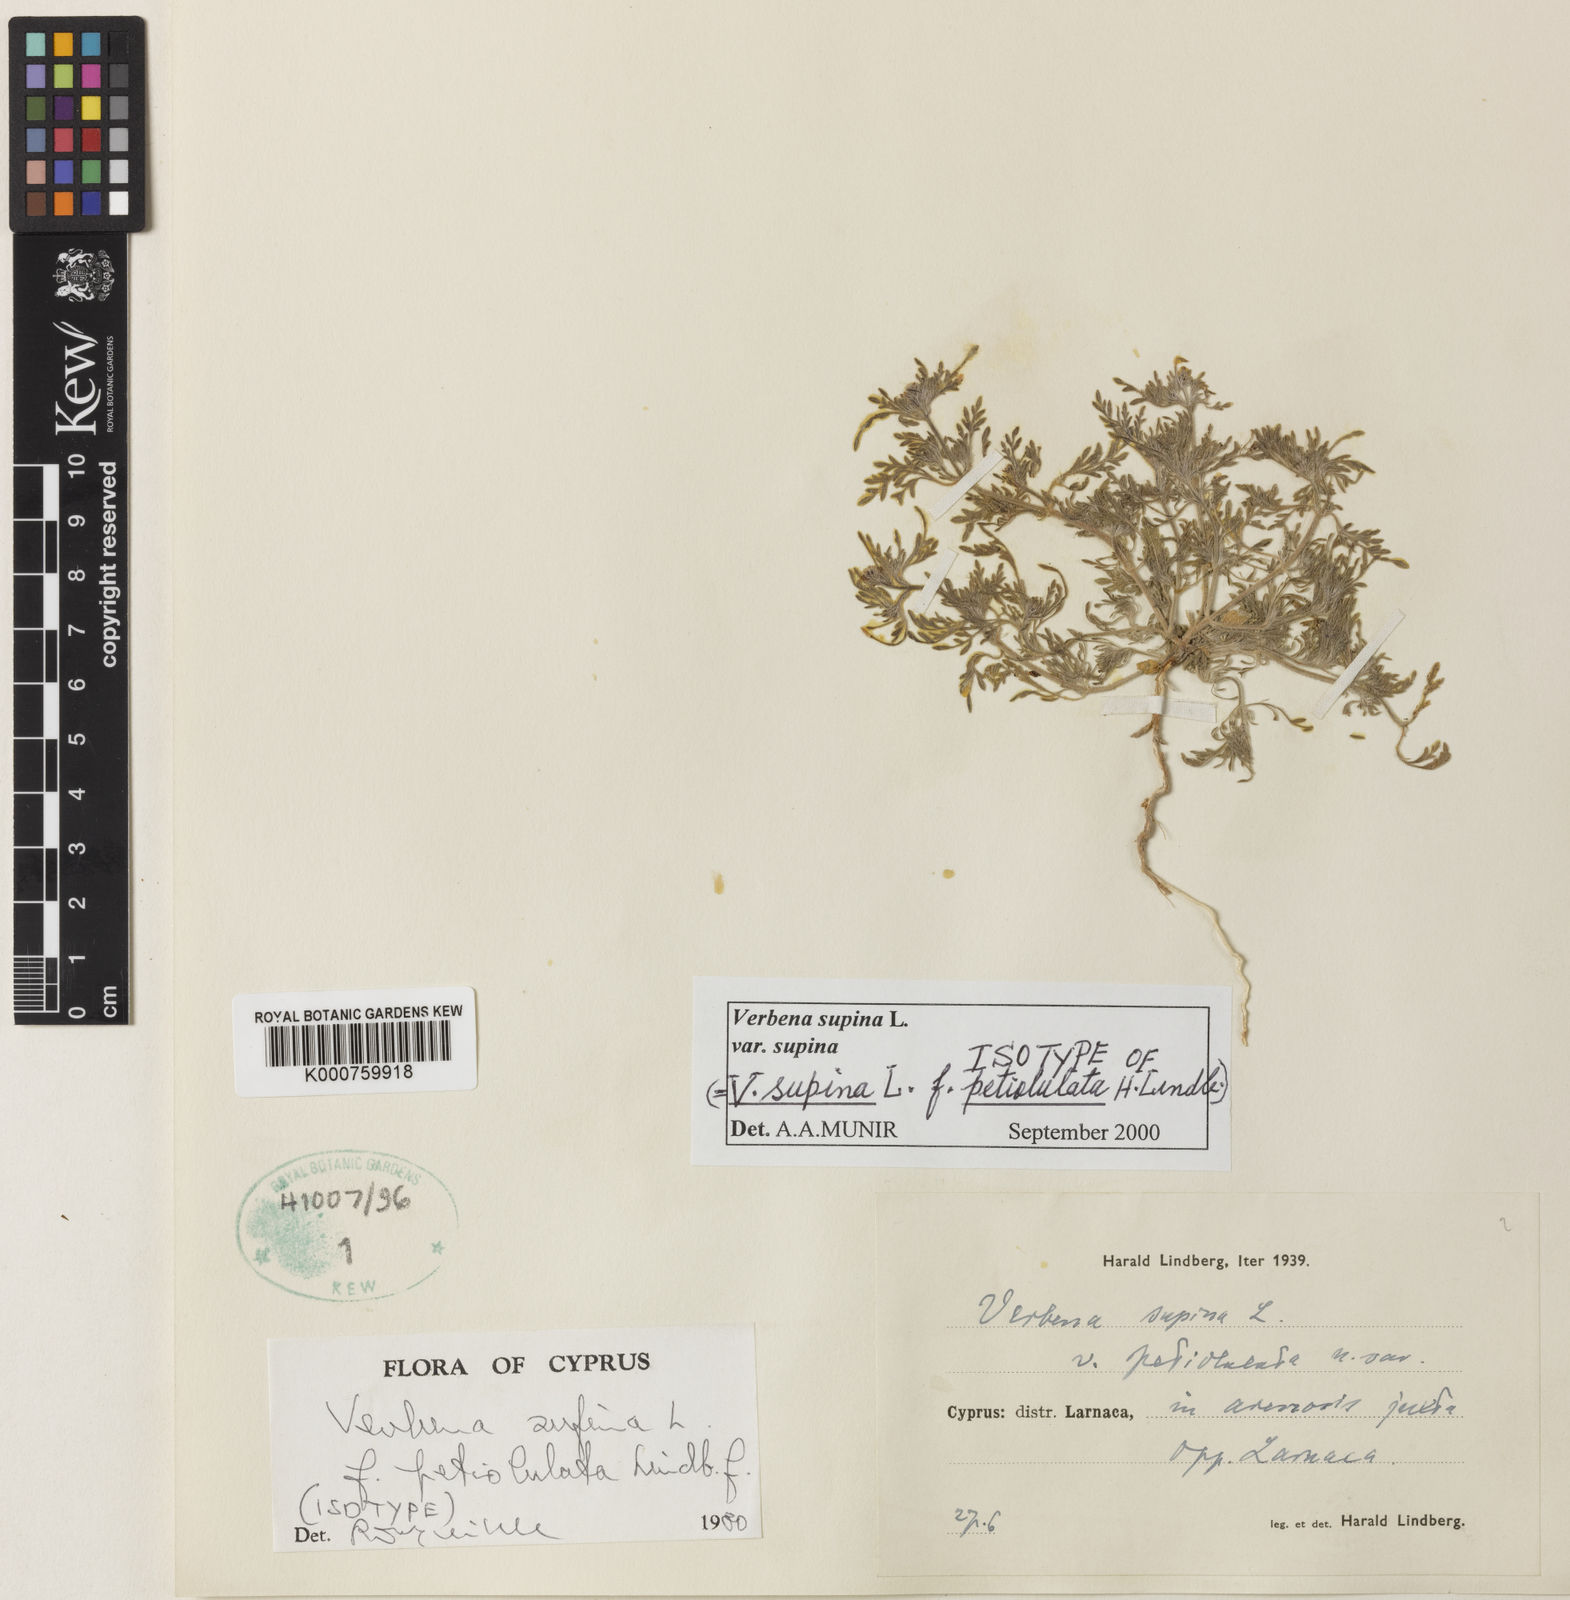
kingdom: Plantae
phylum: Tracheophyta
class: Magnoliopsida
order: Lamiales
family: Verbenaceae
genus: Verbena
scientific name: Verbena supina
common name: Trailing vervain
